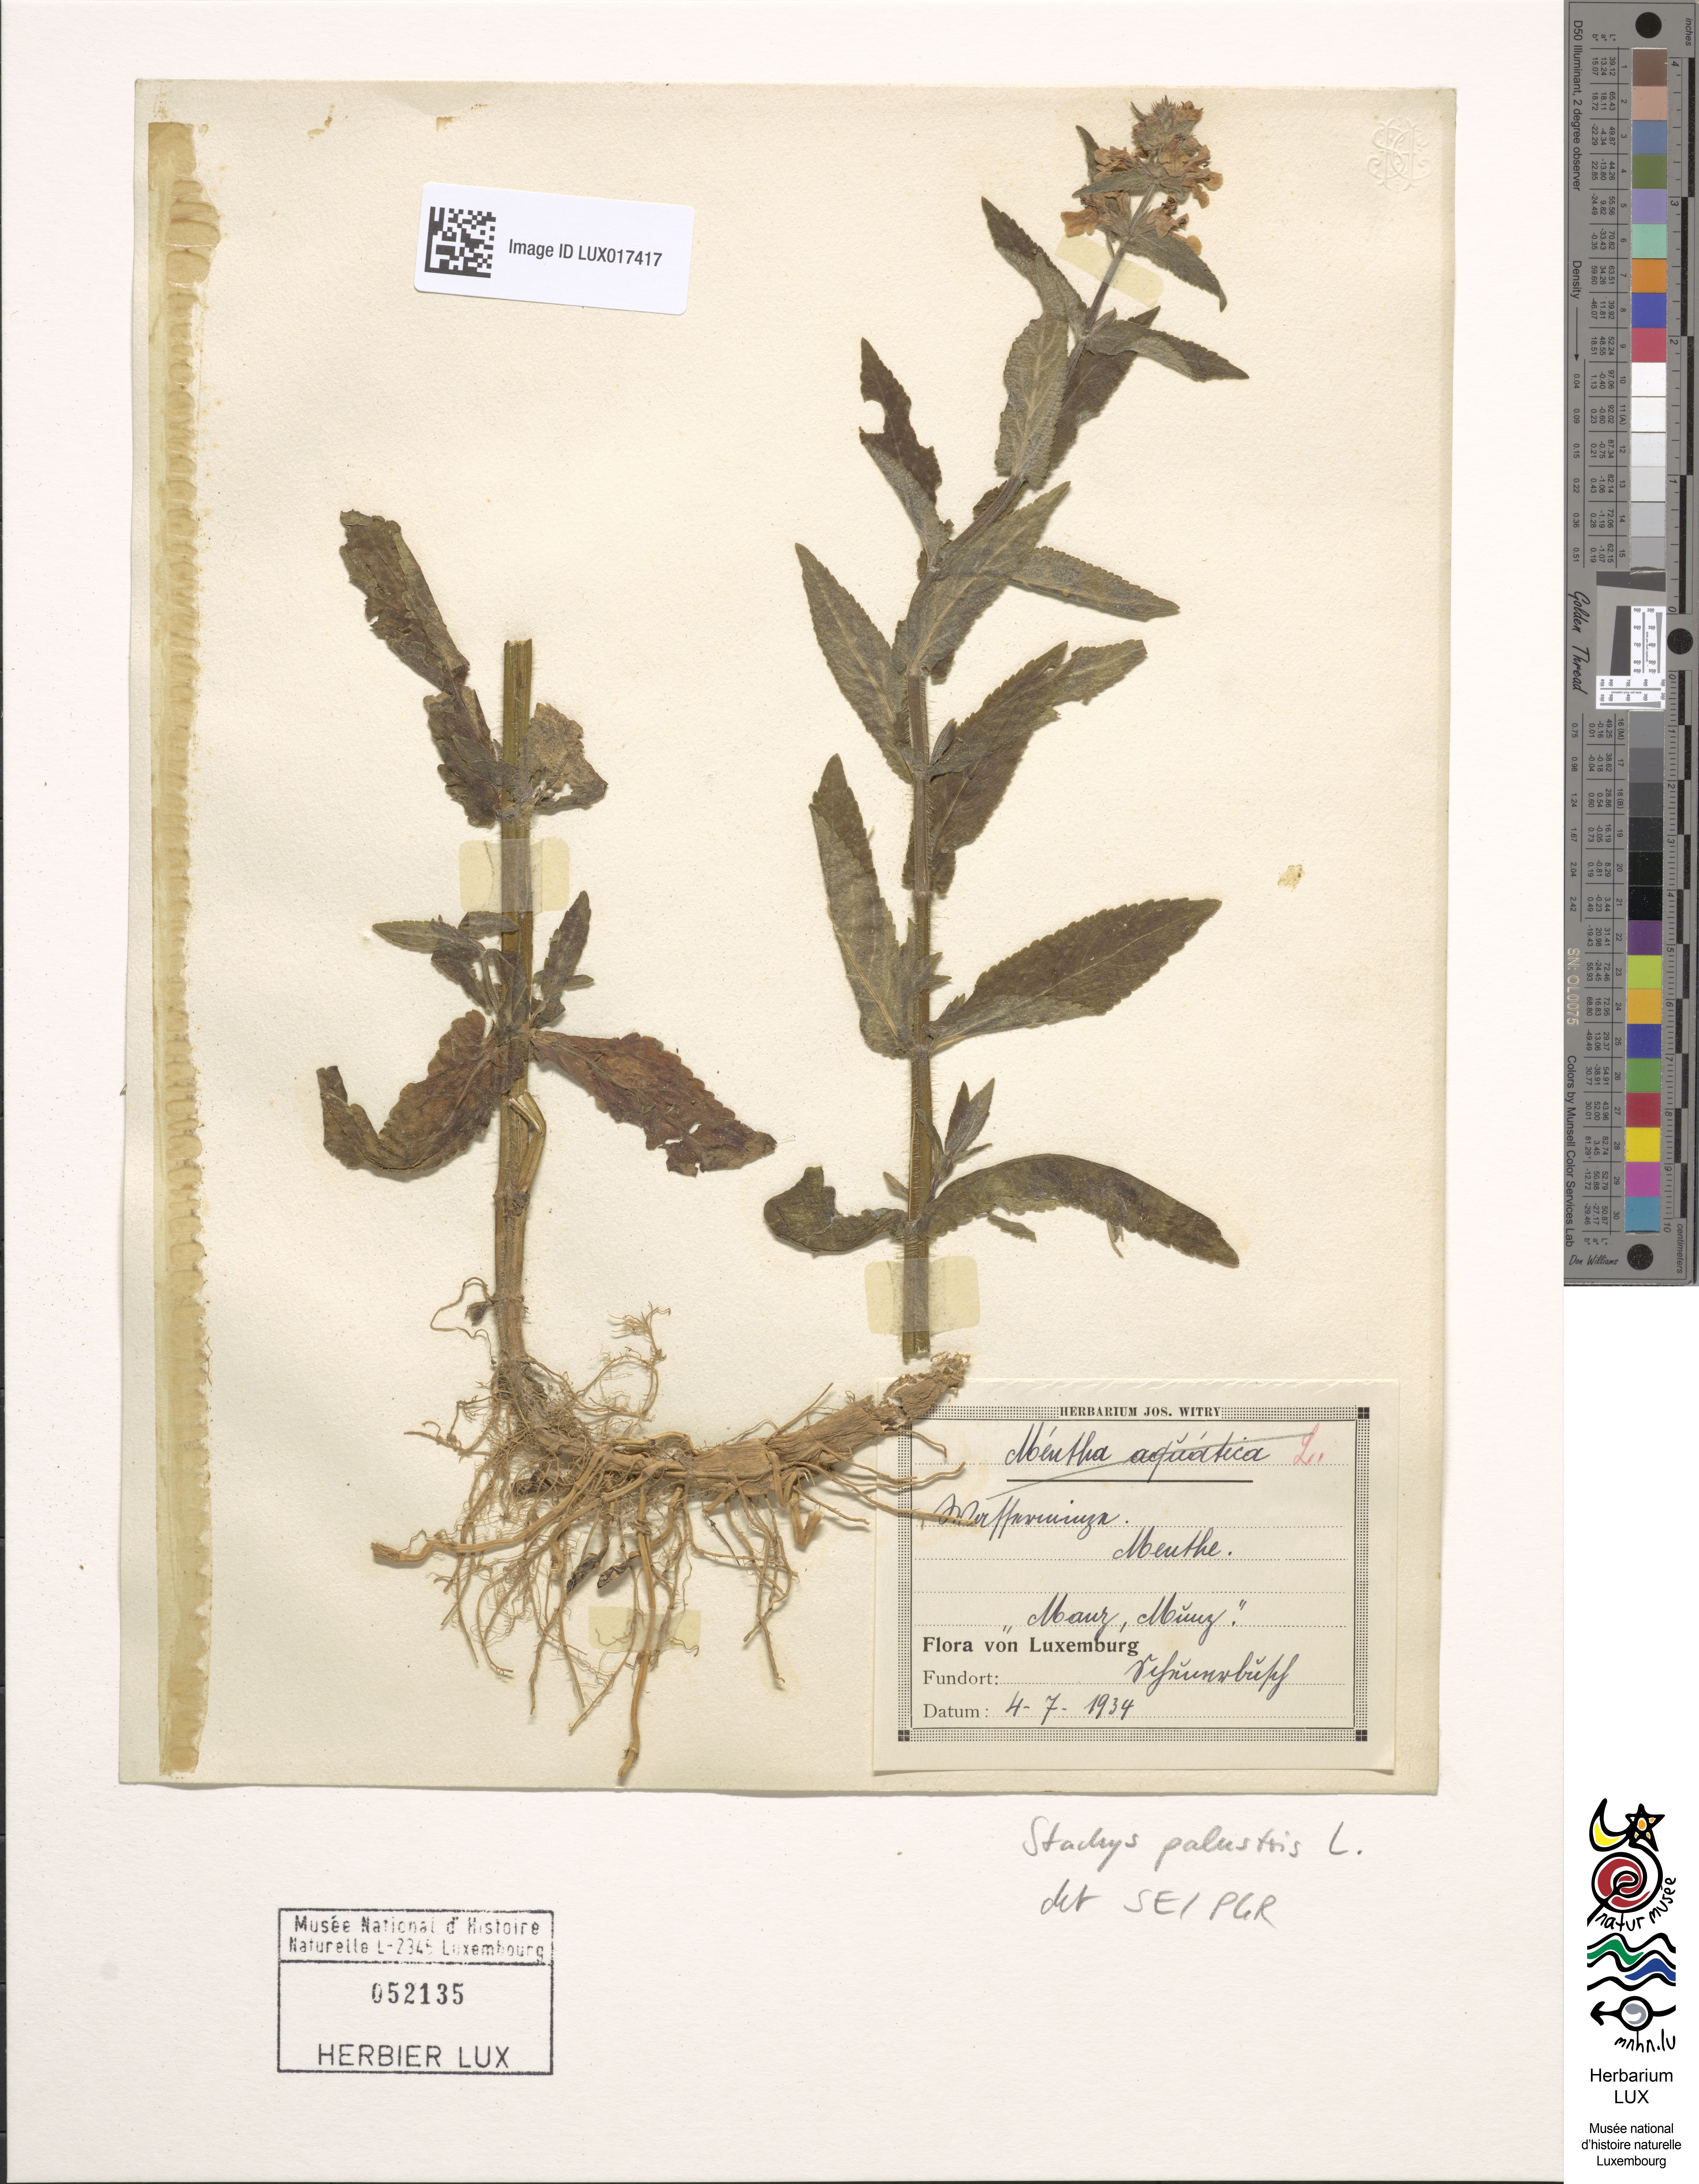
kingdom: Plantae
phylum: Tracheophyta
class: Magnoliopsida
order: Lamiales
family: Lamiaceae
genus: Stachys
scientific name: Stachys palustris
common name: Marsh woundwort
